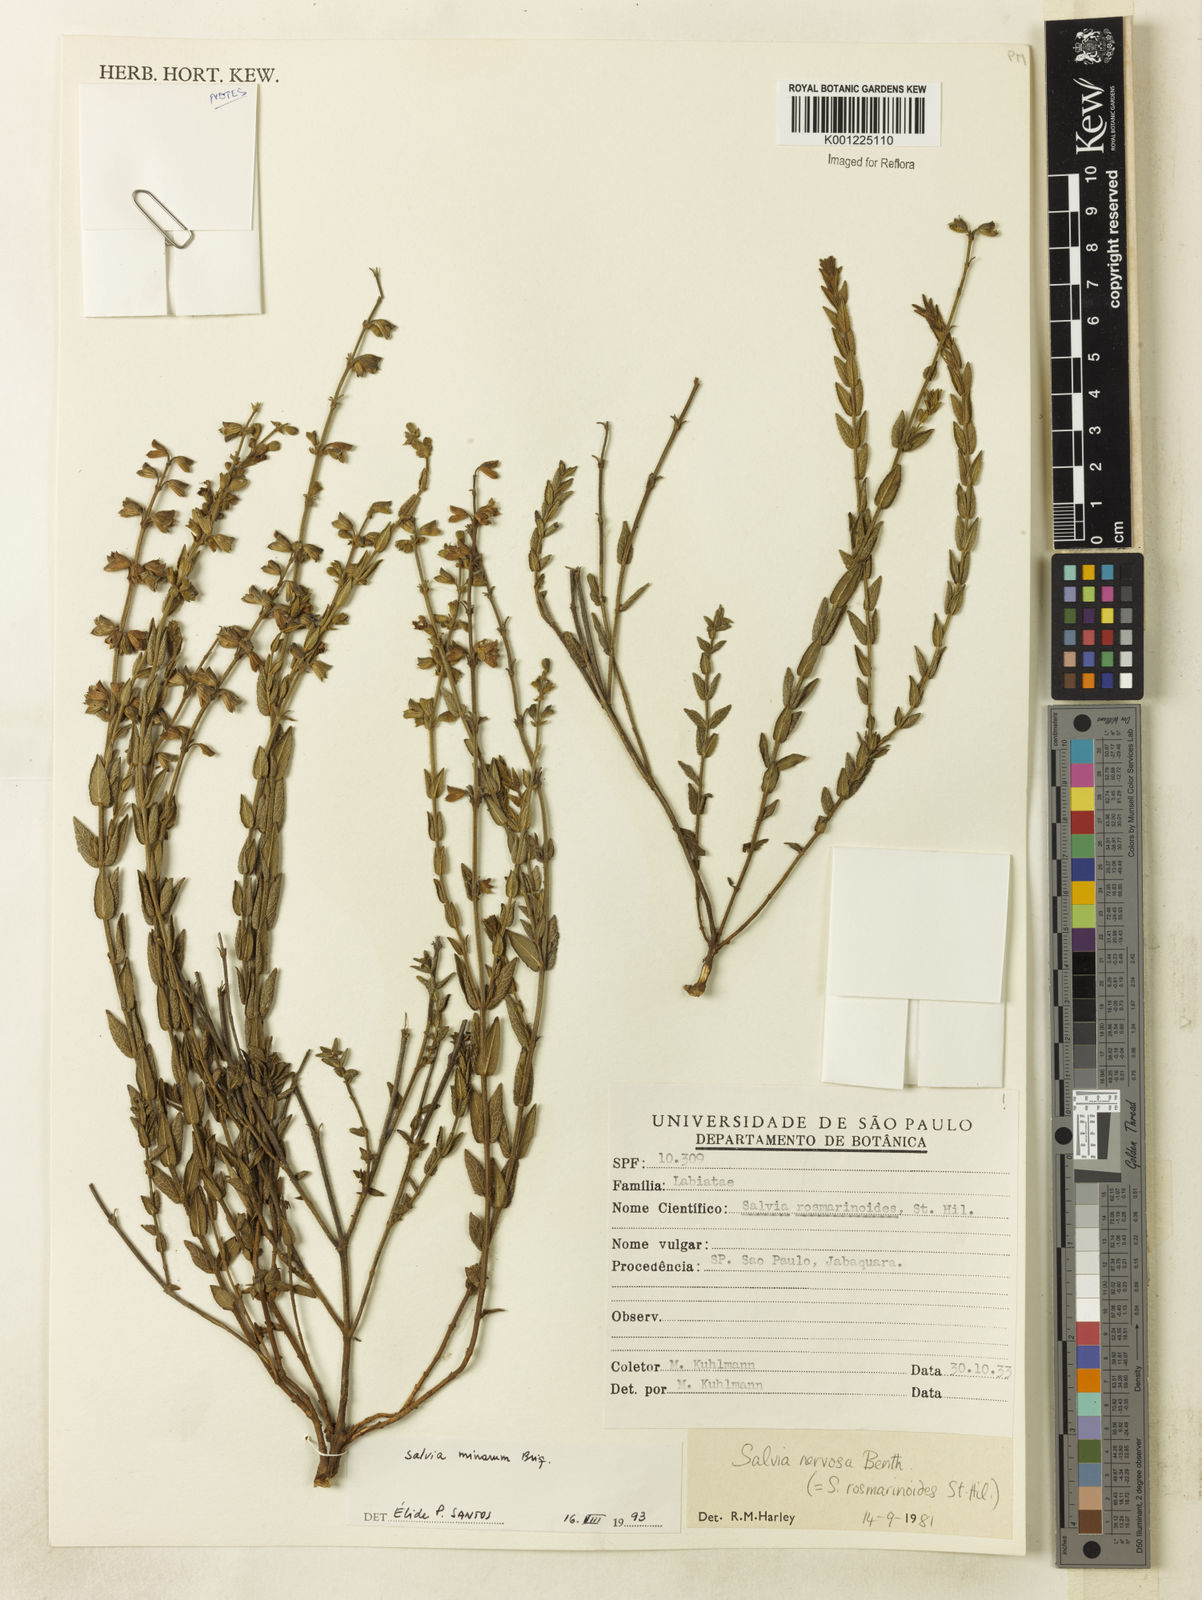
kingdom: Plantae
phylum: Tracheophyta
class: Magnoliopsida
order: Lamiales
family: Lamiaceae
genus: Salvia
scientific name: Salvia minarum
